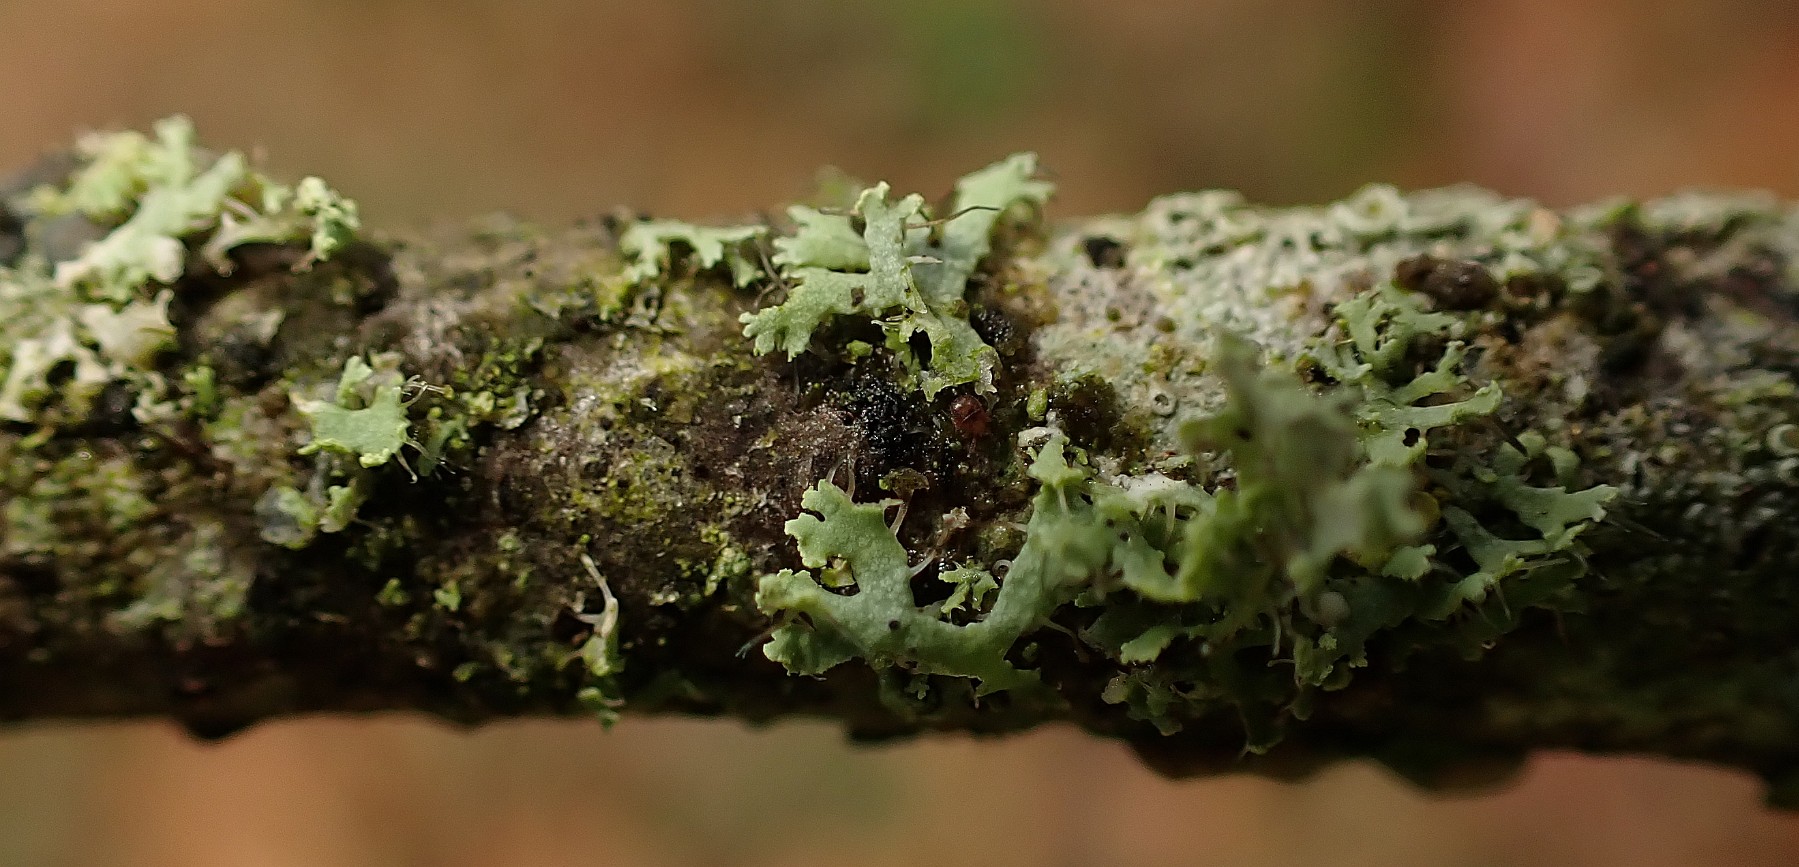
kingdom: Fungi
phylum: Ascomycota
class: Lecanoromycetes
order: Caliciales
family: Physciaceae
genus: Physcia
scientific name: Physcia tenella
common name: spæd rosetlav
